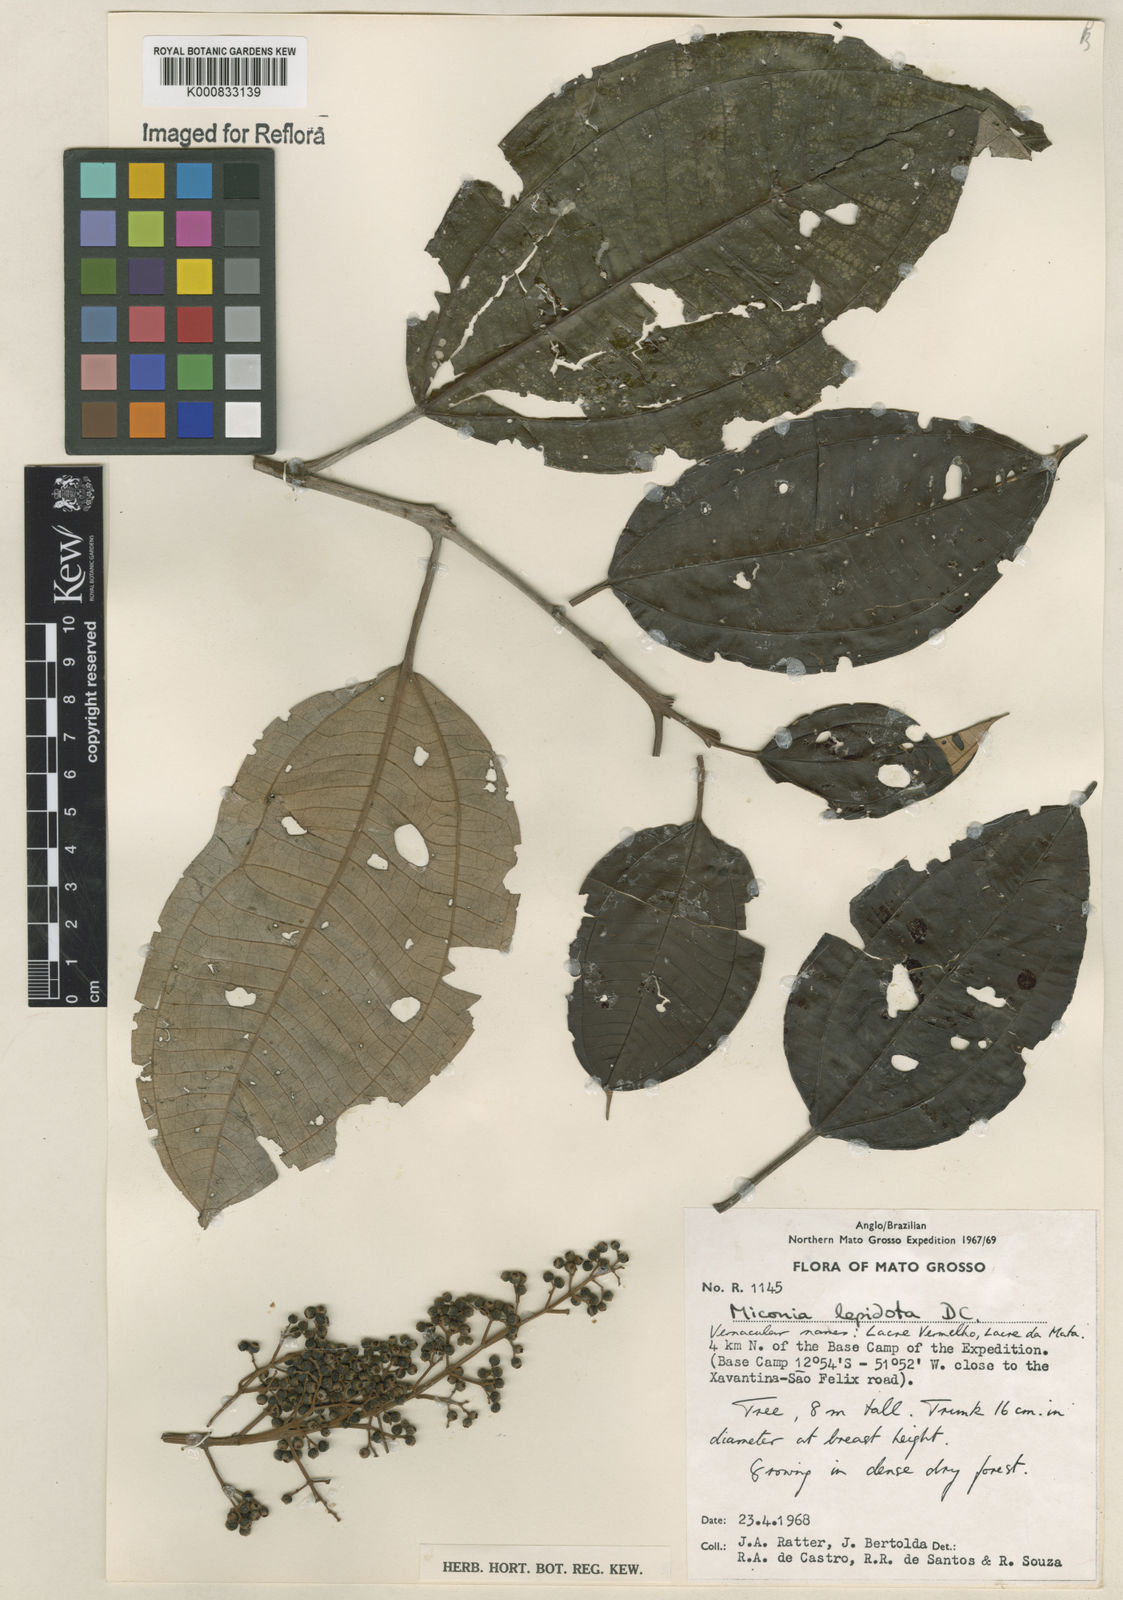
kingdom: Plantae
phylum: Tracheophyta
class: Magnoliopsida
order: Myrtales
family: Melastomataceae
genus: Miconia
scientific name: Miconia lepidota
